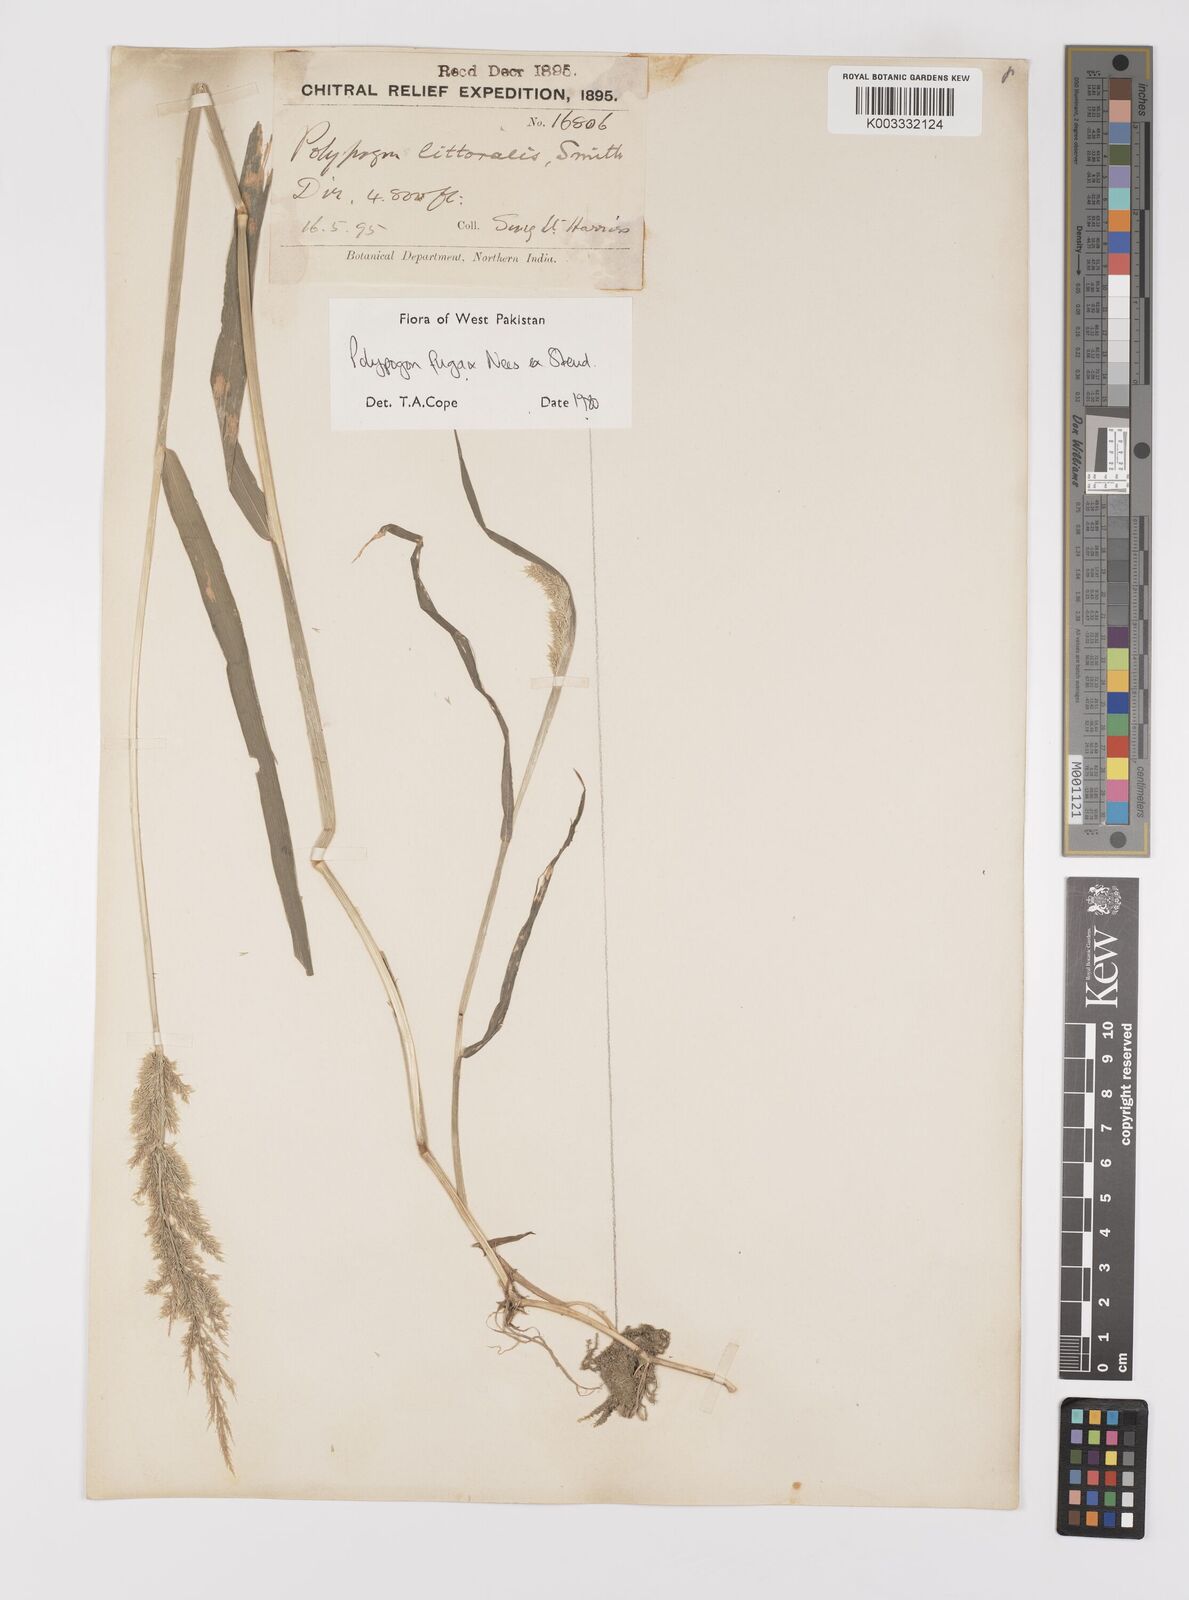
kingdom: Plantae
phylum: Tracheophyta
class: Liliopsida
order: Poales
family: Poaceae
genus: Polypogon
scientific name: Polypogon fugax
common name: Asia minor bluegrass
